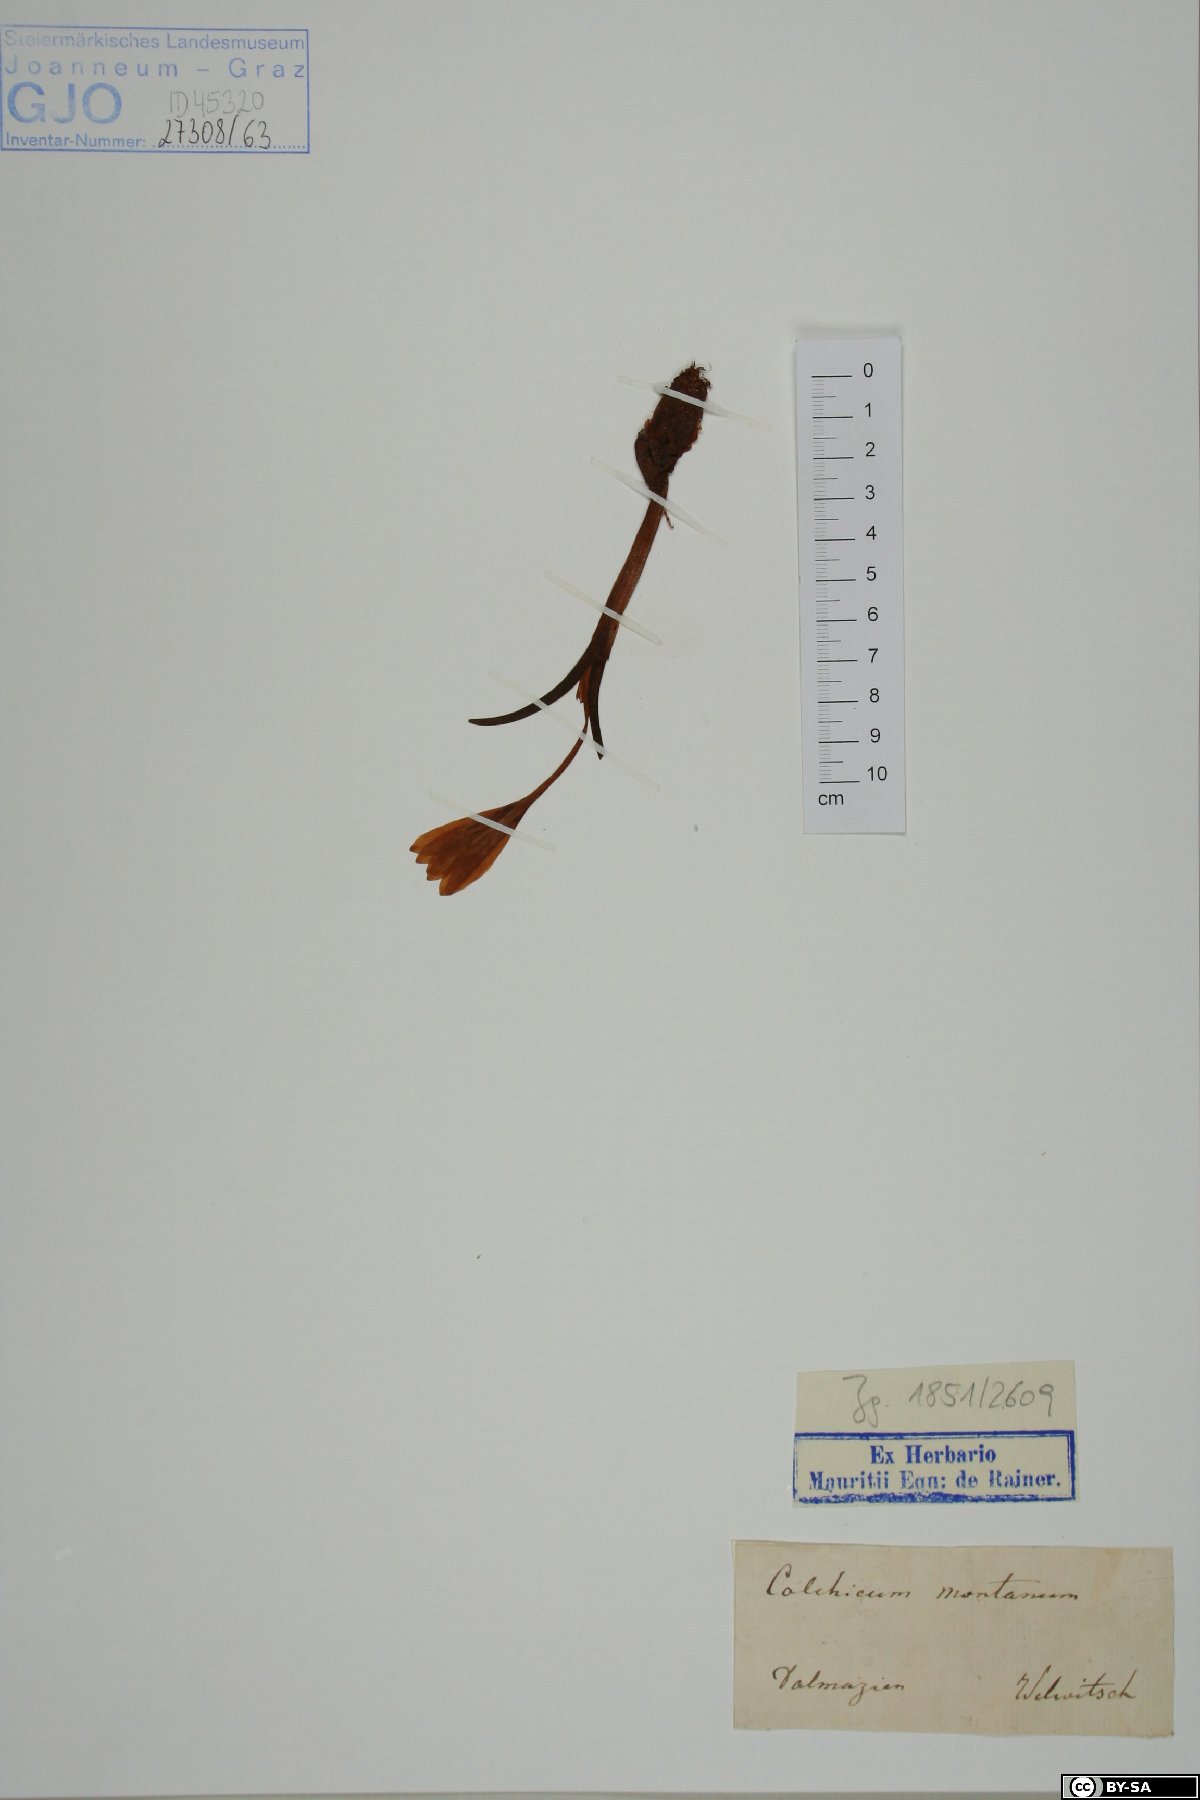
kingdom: Plantae
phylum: Tracheophyta
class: Liliopsida
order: Liliales
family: Colchicaceae
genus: Colchicum
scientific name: Colchicum montanum
